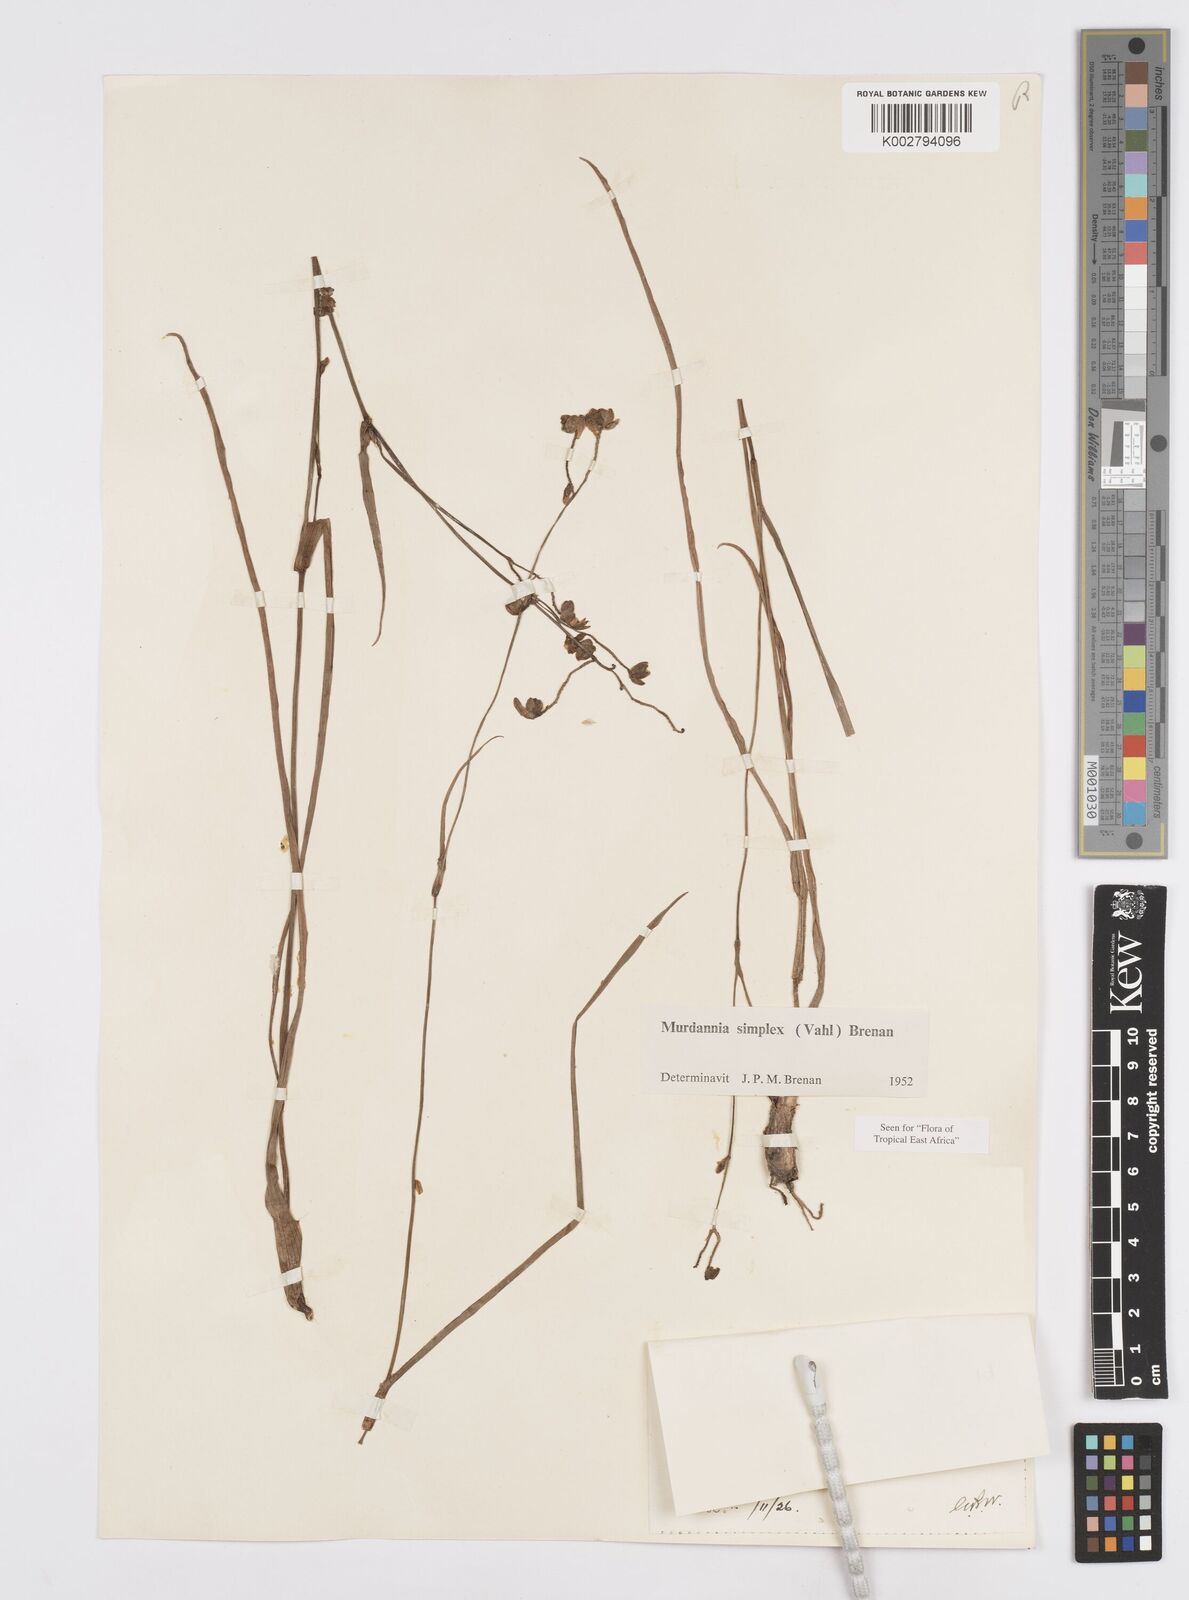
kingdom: Plantae
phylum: Tracheophyta
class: Liliopsida
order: Commelinales
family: Commelinaceae
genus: Murdannia
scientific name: Murdannia simplex
